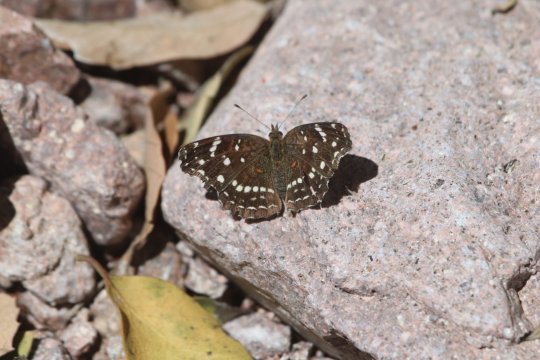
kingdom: Animalia
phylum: Arthropoda
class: Insecta
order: Lepidoptera
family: Nymphalidae
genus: Anthanassa
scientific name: Anthanassa texana
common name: Texan Crescent
